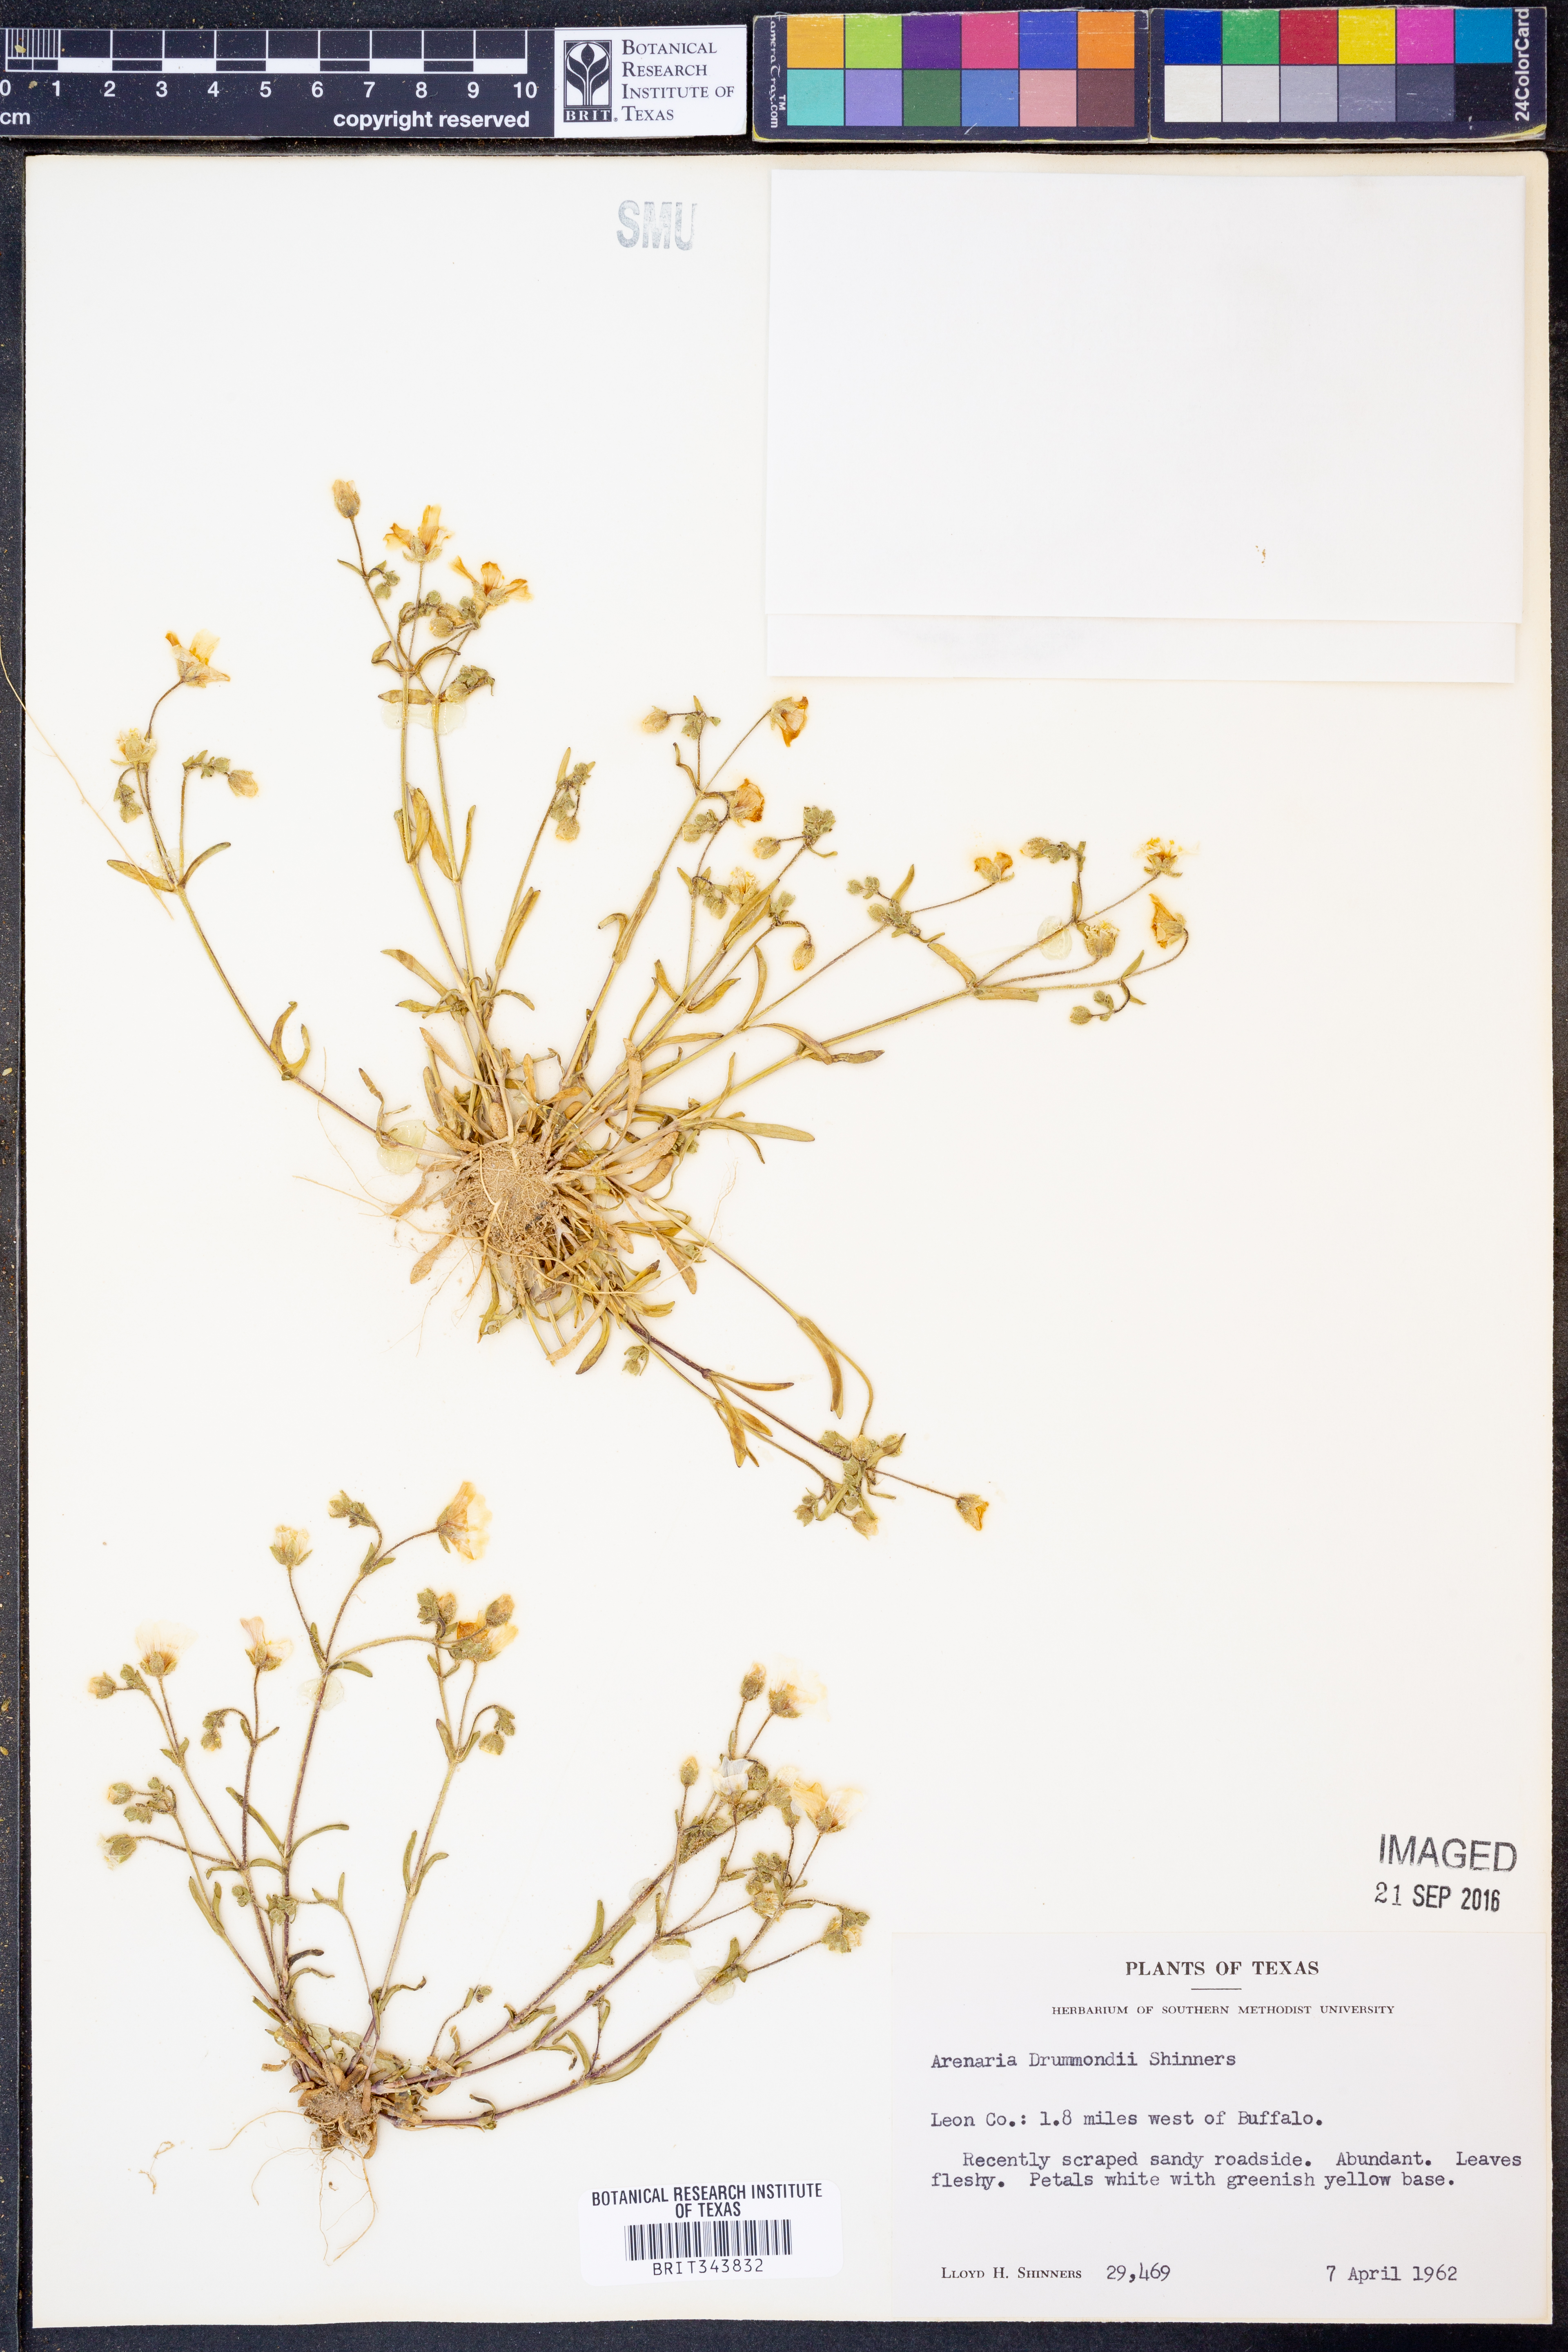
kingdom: Plantae
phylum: Tracheophyta
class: Magnoliopsida
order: Caryophyllales
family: Caryophyllaceae
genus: Geocarpon
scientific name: Geocarpon nuttallii
